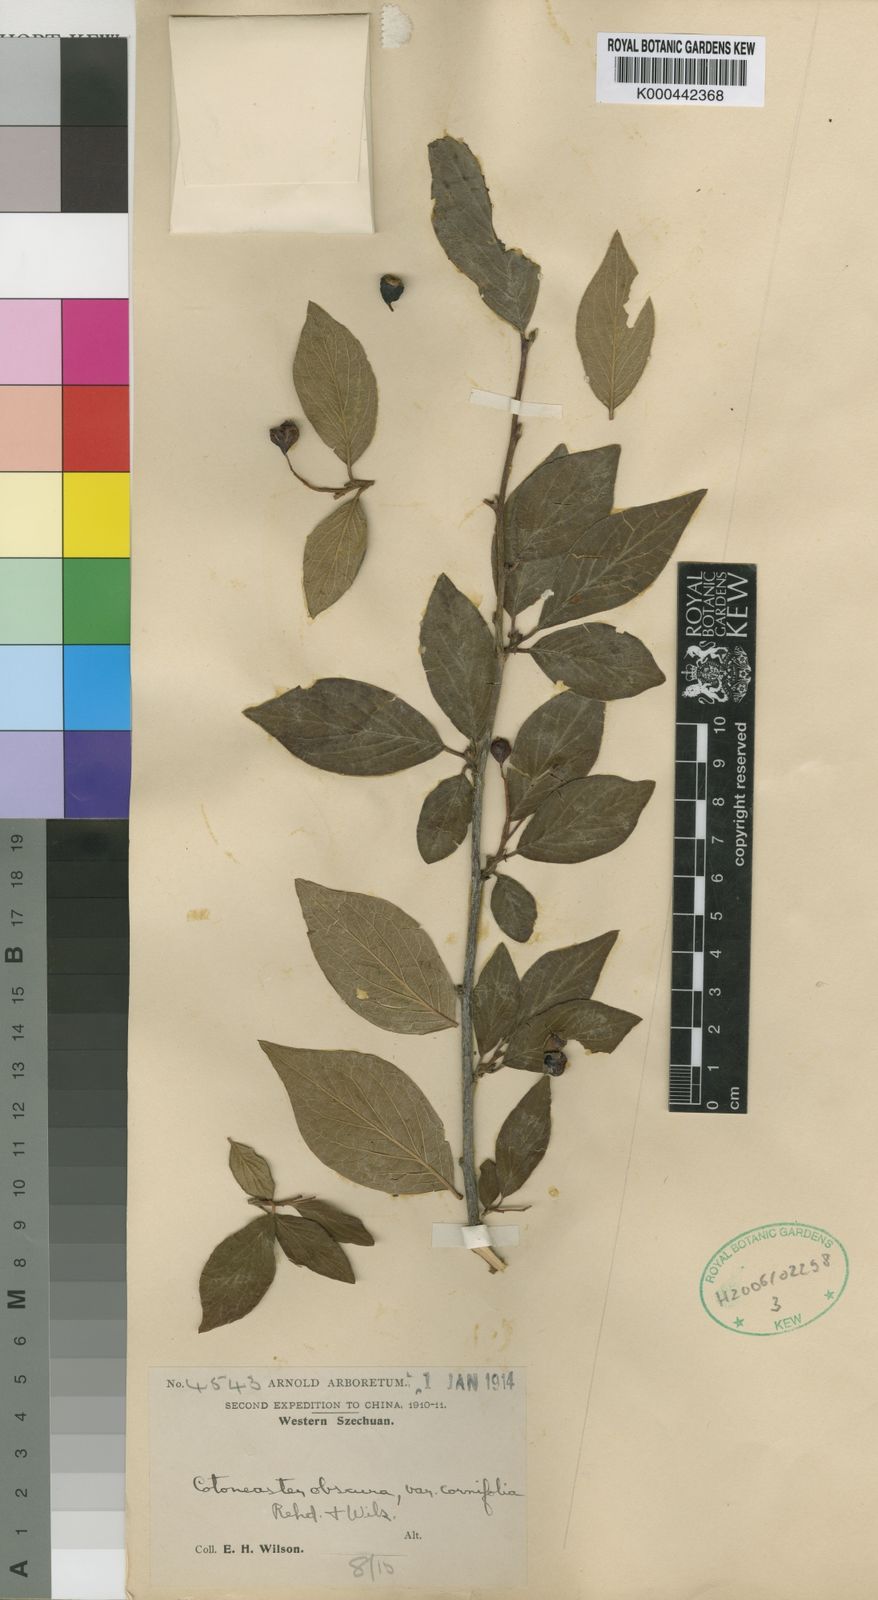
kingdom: Plantae
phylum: Tracheophyta
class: Magnoliopsida
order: Rosales
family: Rosaceae
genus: Cotoneaster
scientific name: Cotoneaster obscurus
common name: Obscure cotoneaster
